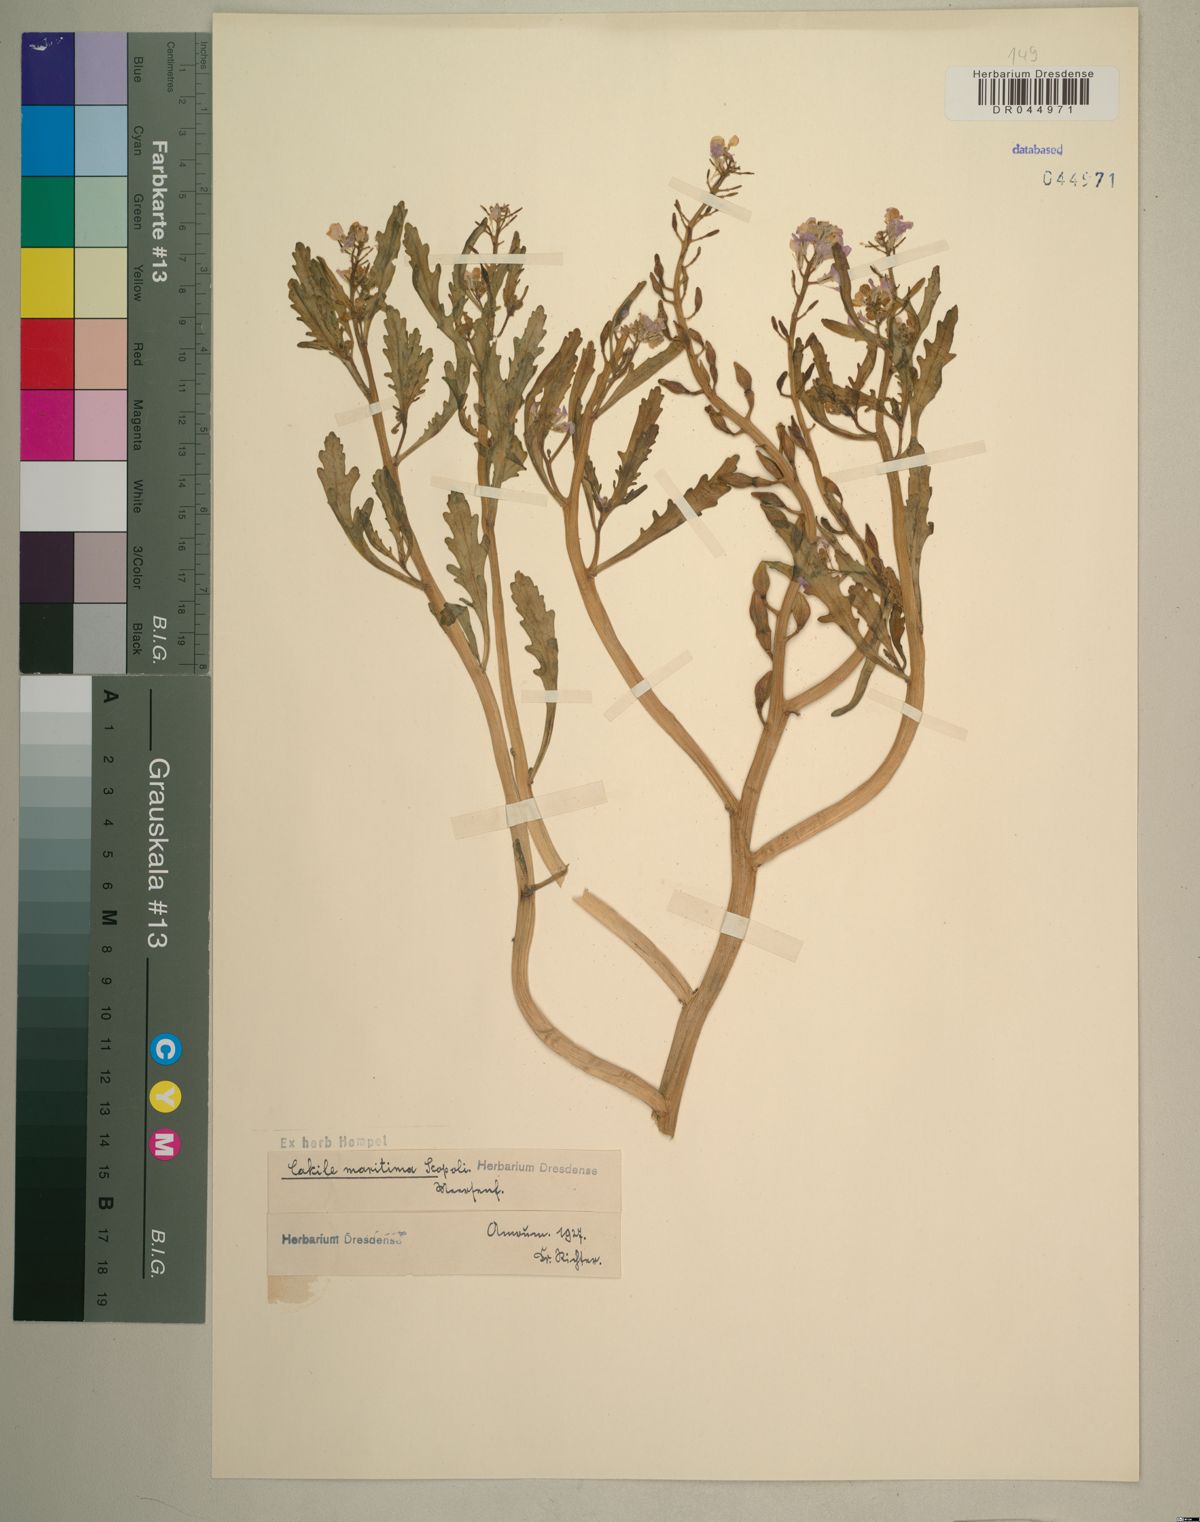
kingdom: Plantae
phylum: Tracheophyta
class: Magnoliopsida
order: Brassicales
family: Brassicaceae
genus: Cakile
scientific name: Cakile maritima
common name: Sea rocket
